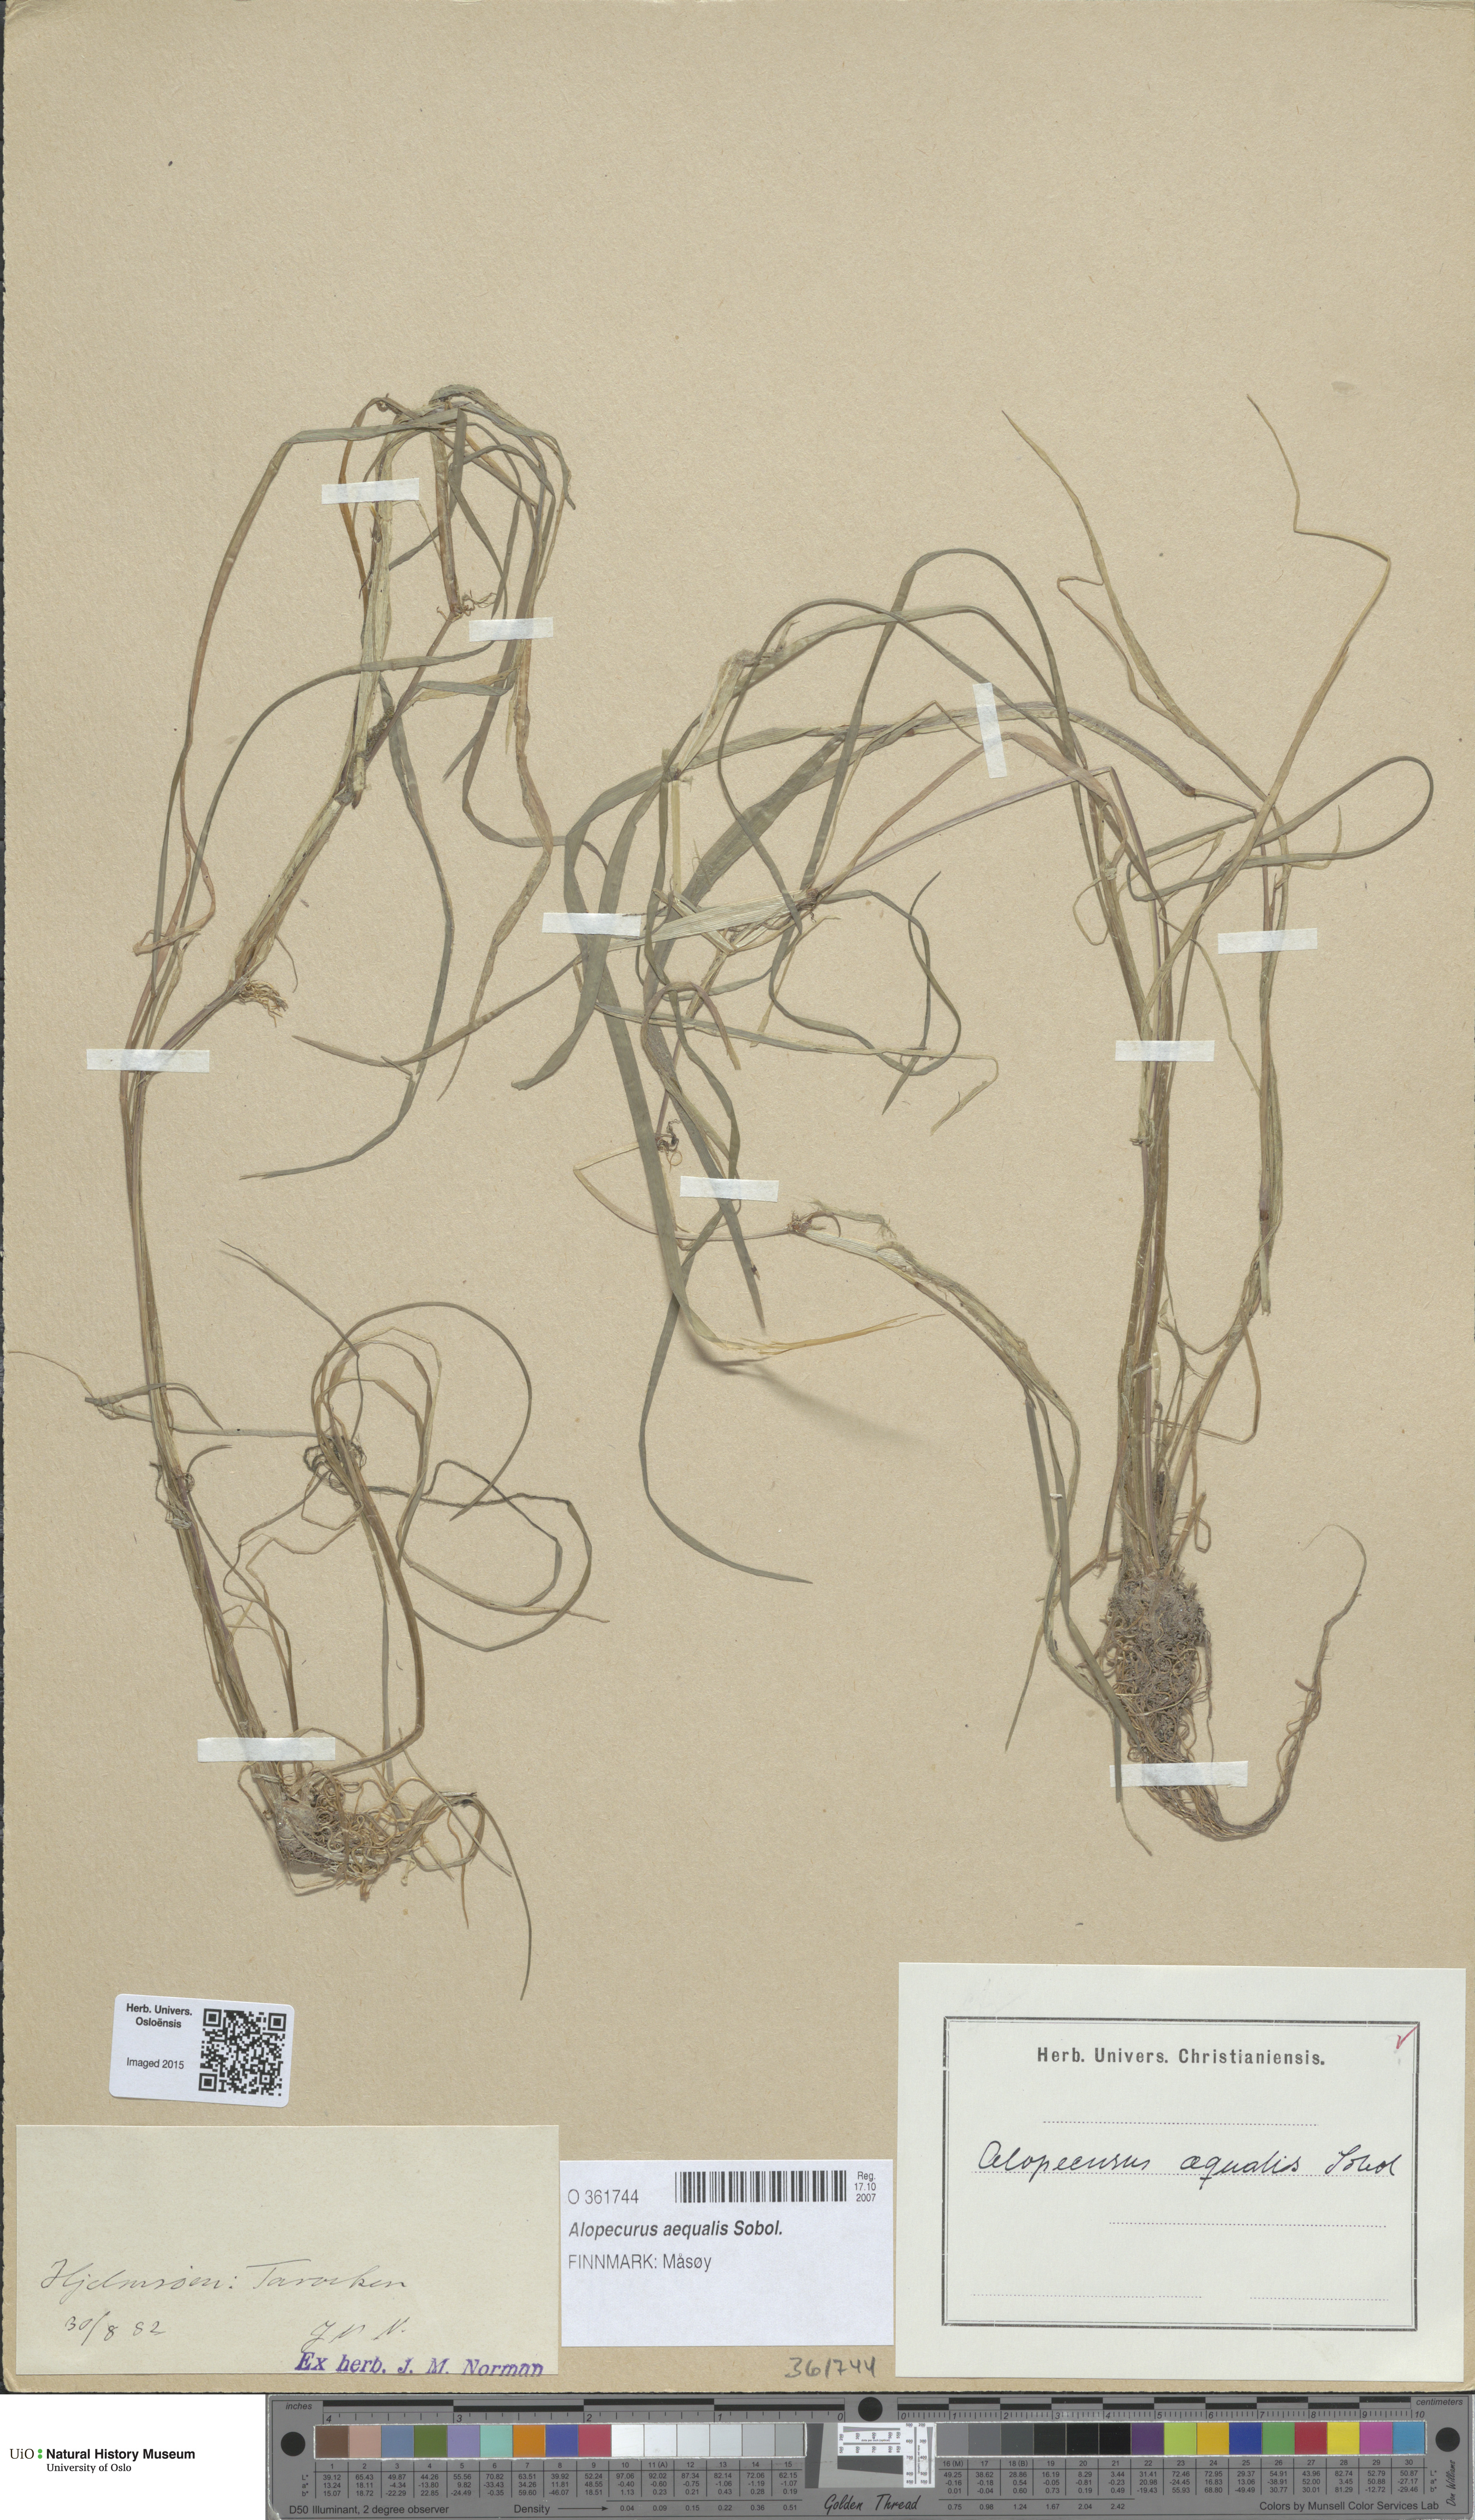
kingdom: Plantae
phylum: Tracheophyta
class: Liliopsida
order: Poales
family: Poaceae
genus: Alopecurus
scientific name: Alopecurus aequalis
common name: Orange foxtail
